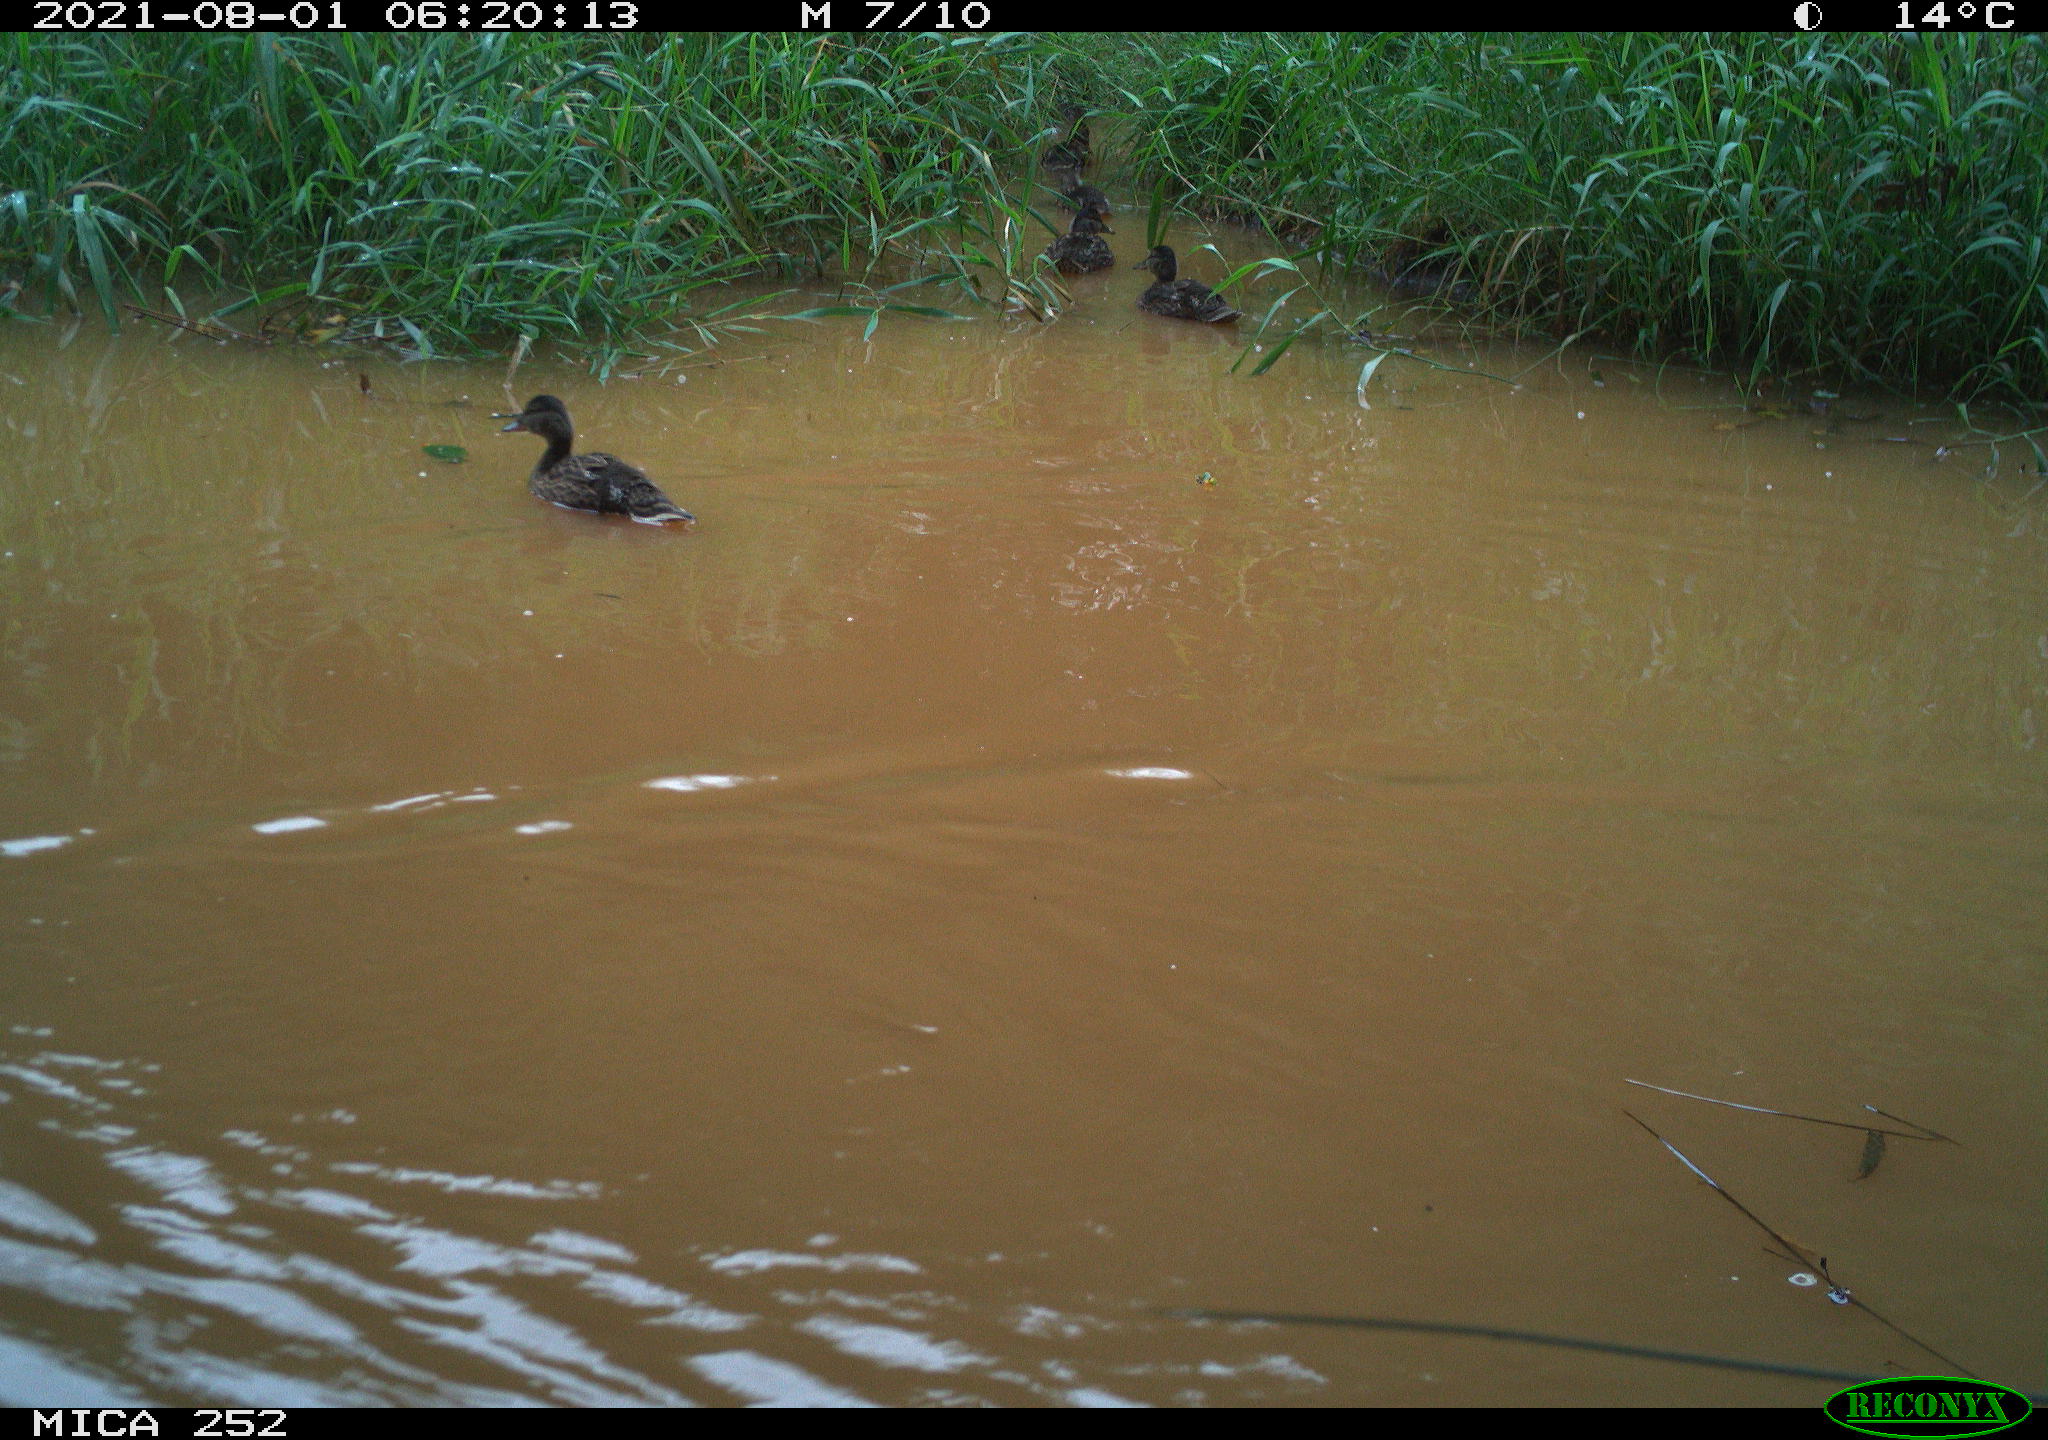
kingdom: Animalia
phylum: Chordata
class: Aves
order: Anseriformes
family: Anatidae
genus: Anas
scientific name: Anas
